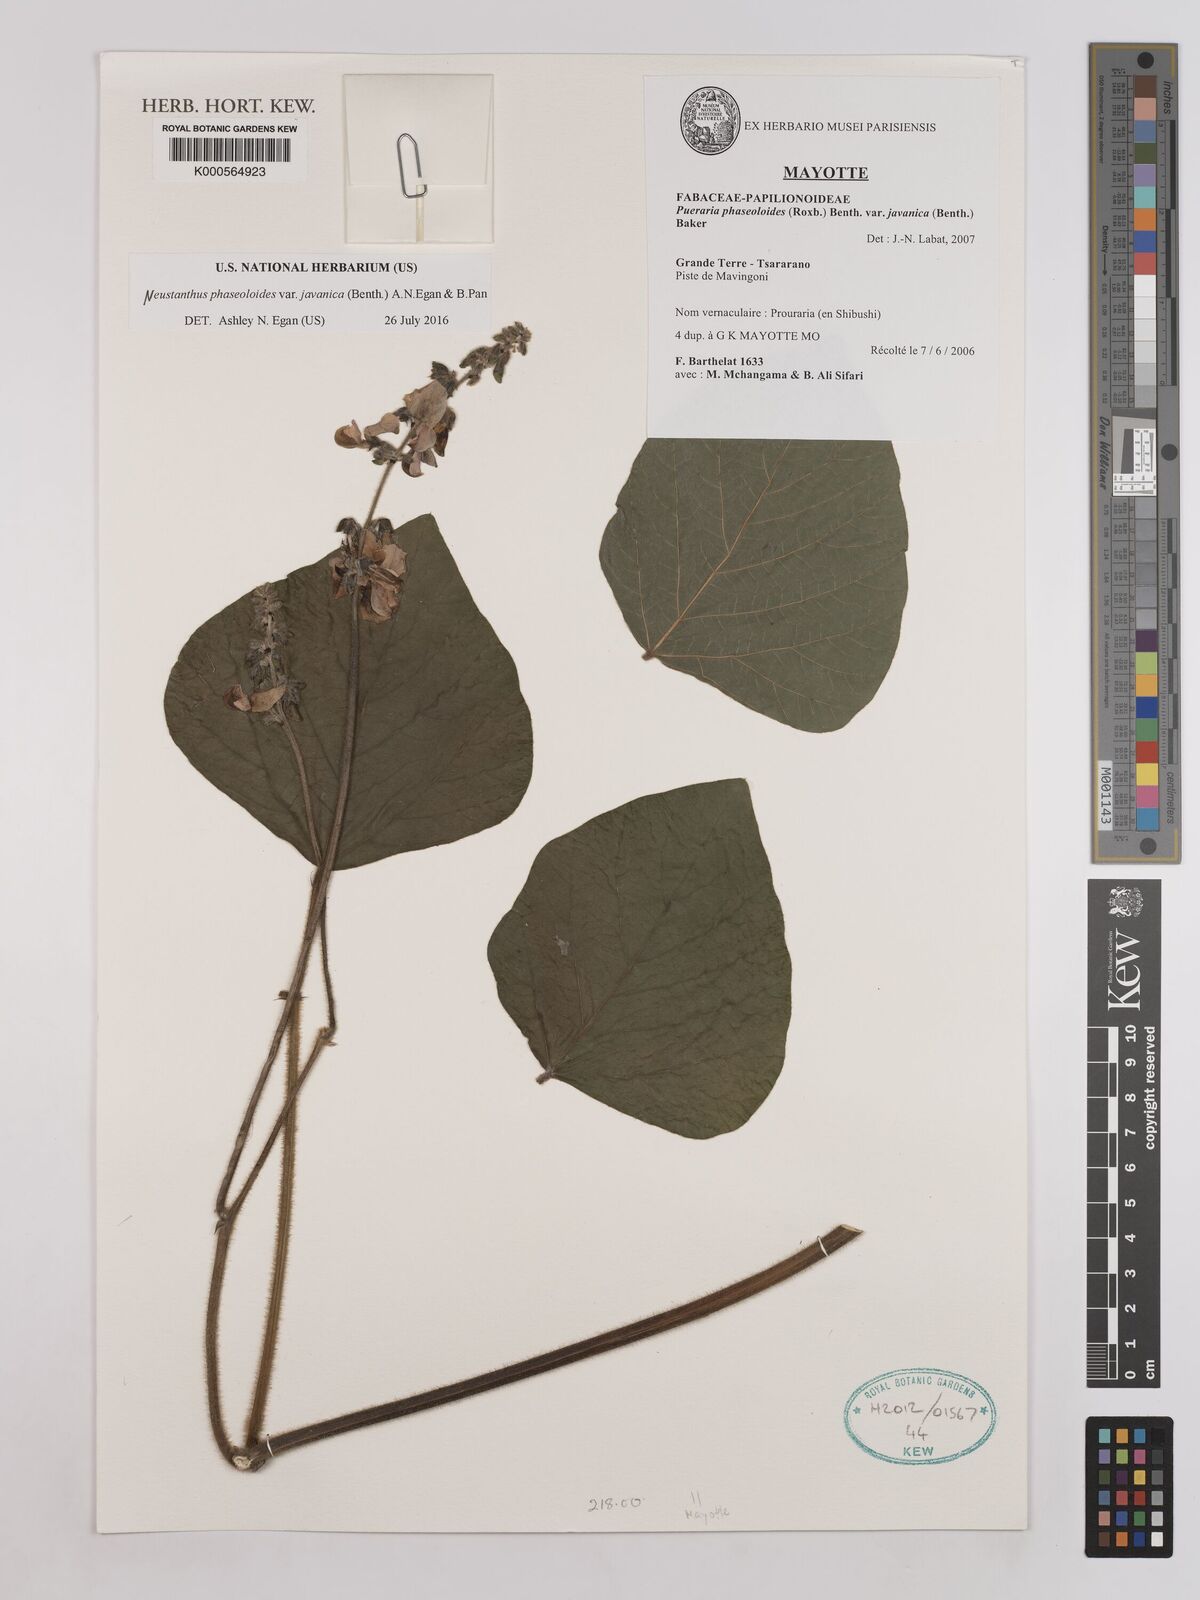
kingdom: Plantae
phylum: Tracheophyta
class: Magnoliopsida
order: Fabales
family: Fabaceae
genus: Neustanthus
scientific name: Neustanthus phaseoloides
